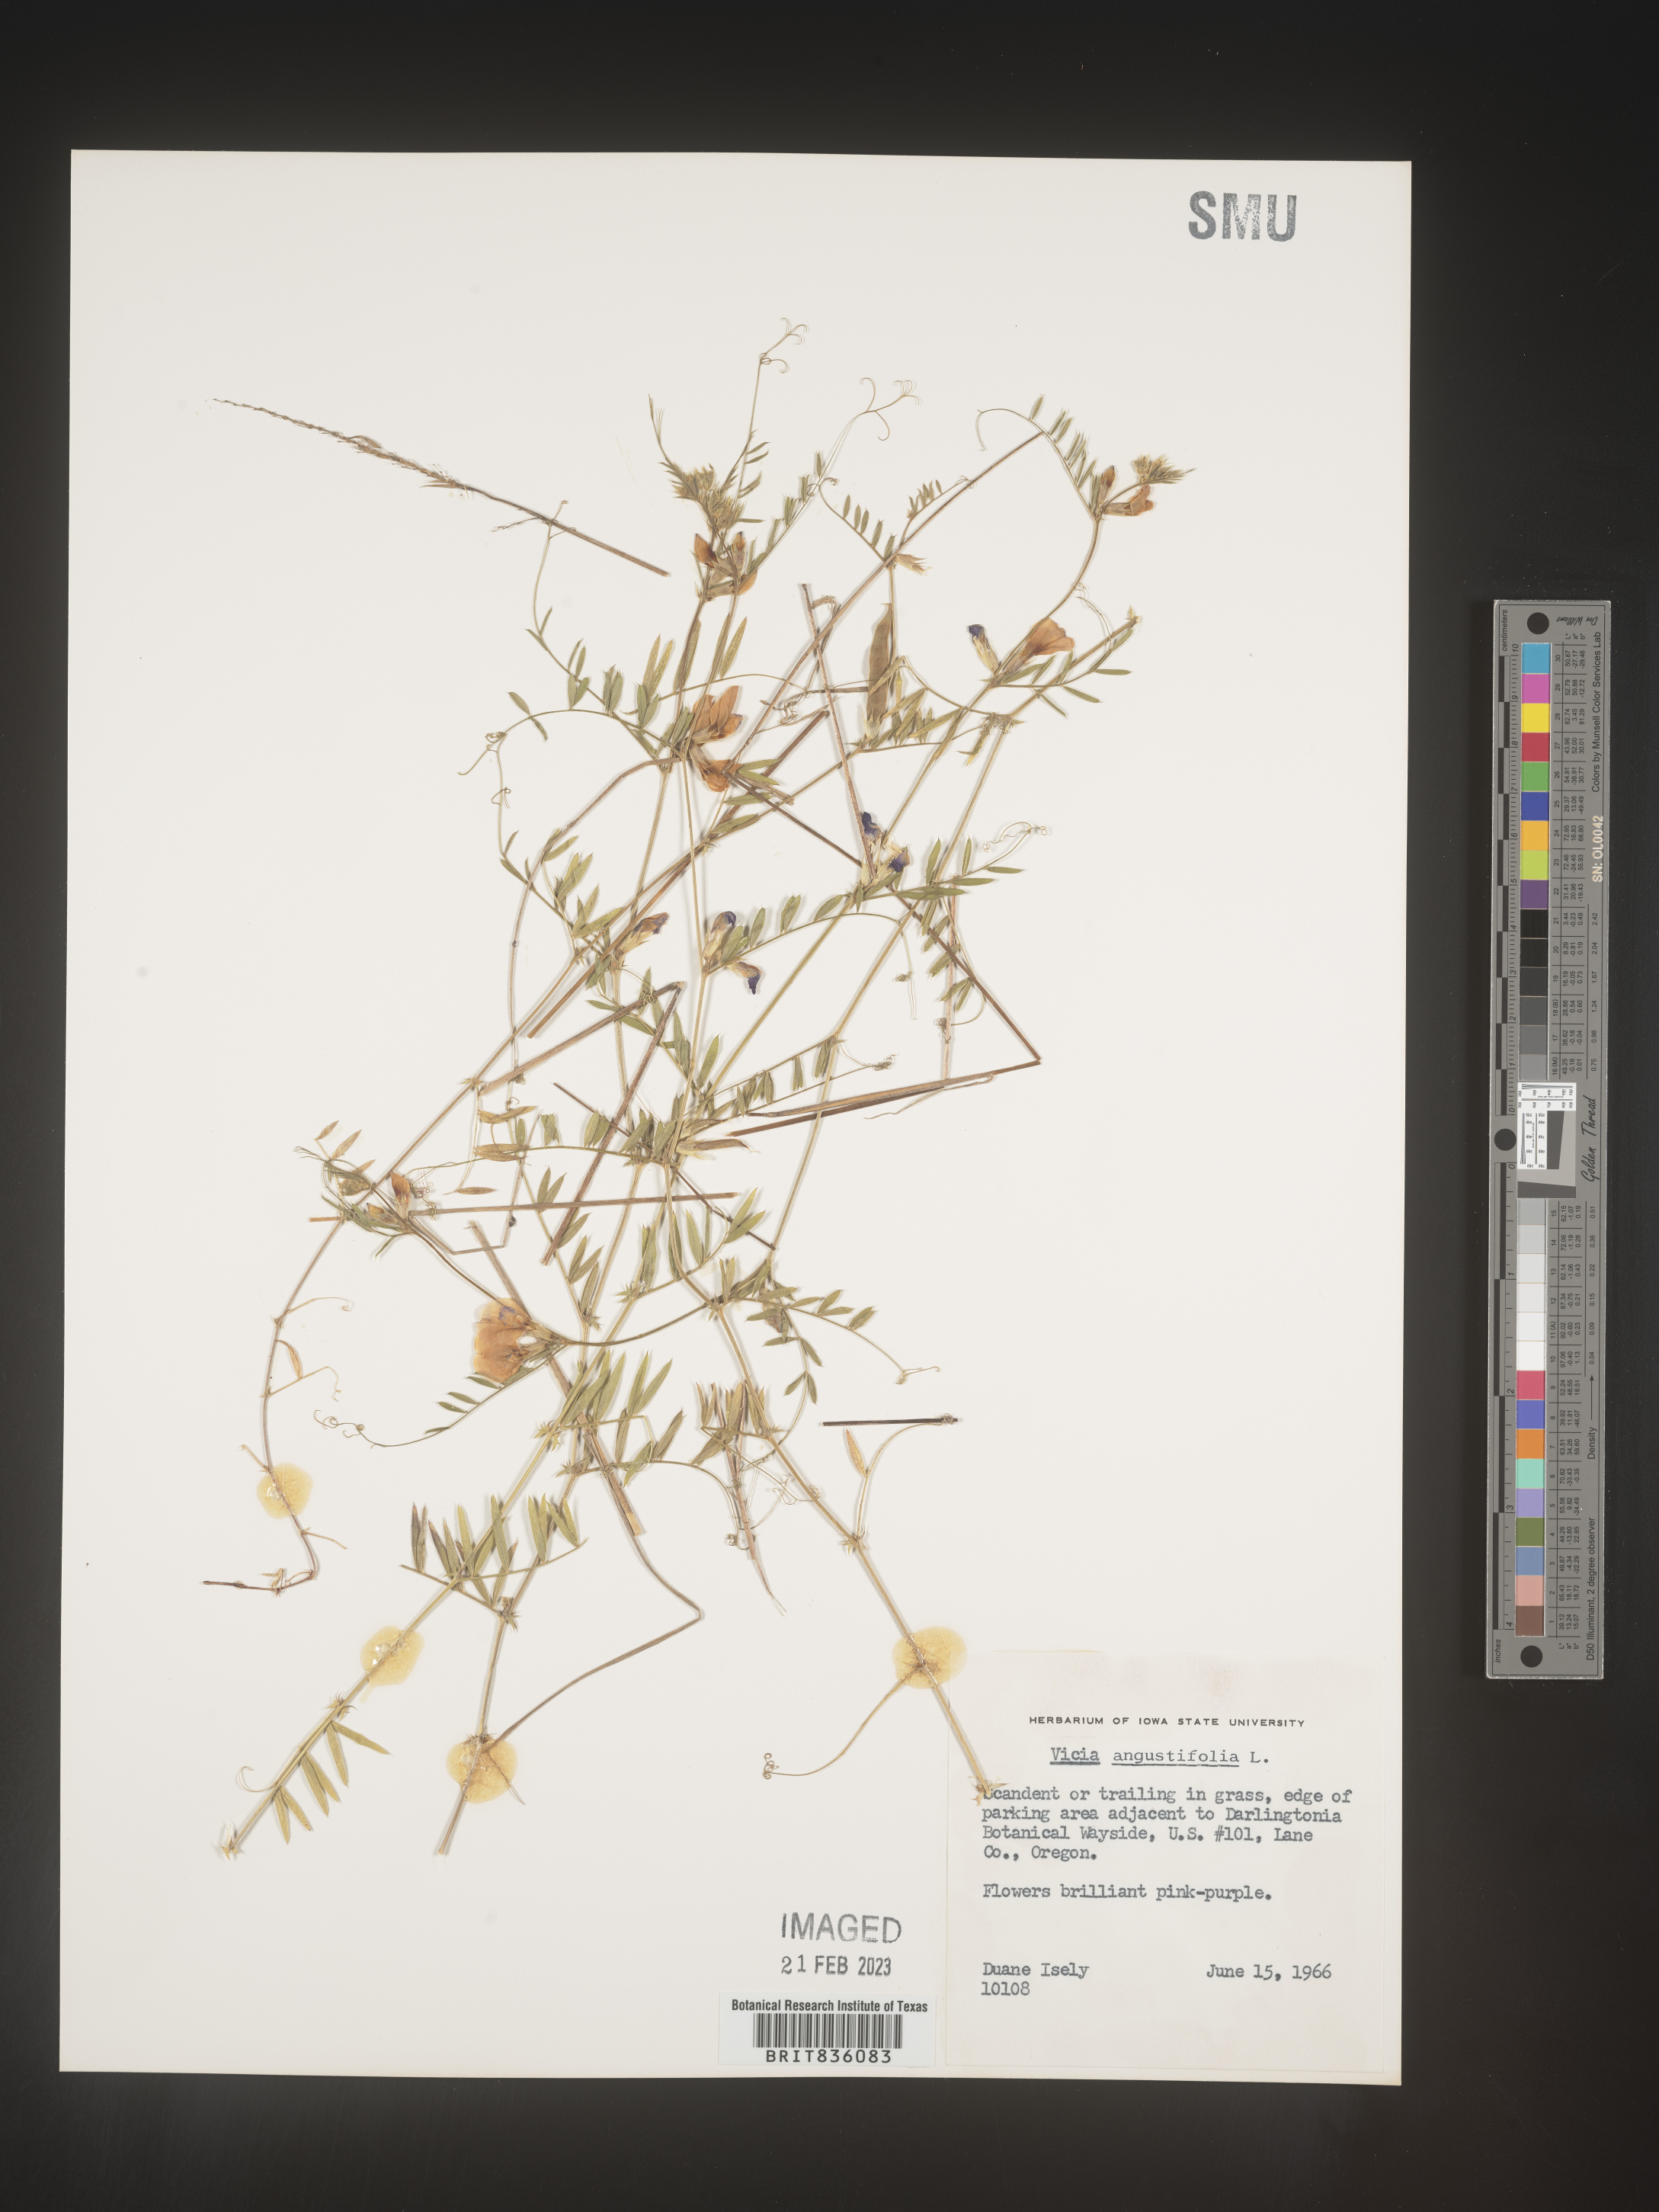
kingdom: Plantae
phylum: Tracheophyta
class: Magnoliopsida
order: Fabales
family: Fabaceae
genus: Vicia
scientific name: Vicia sativa
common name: Garden vetch
